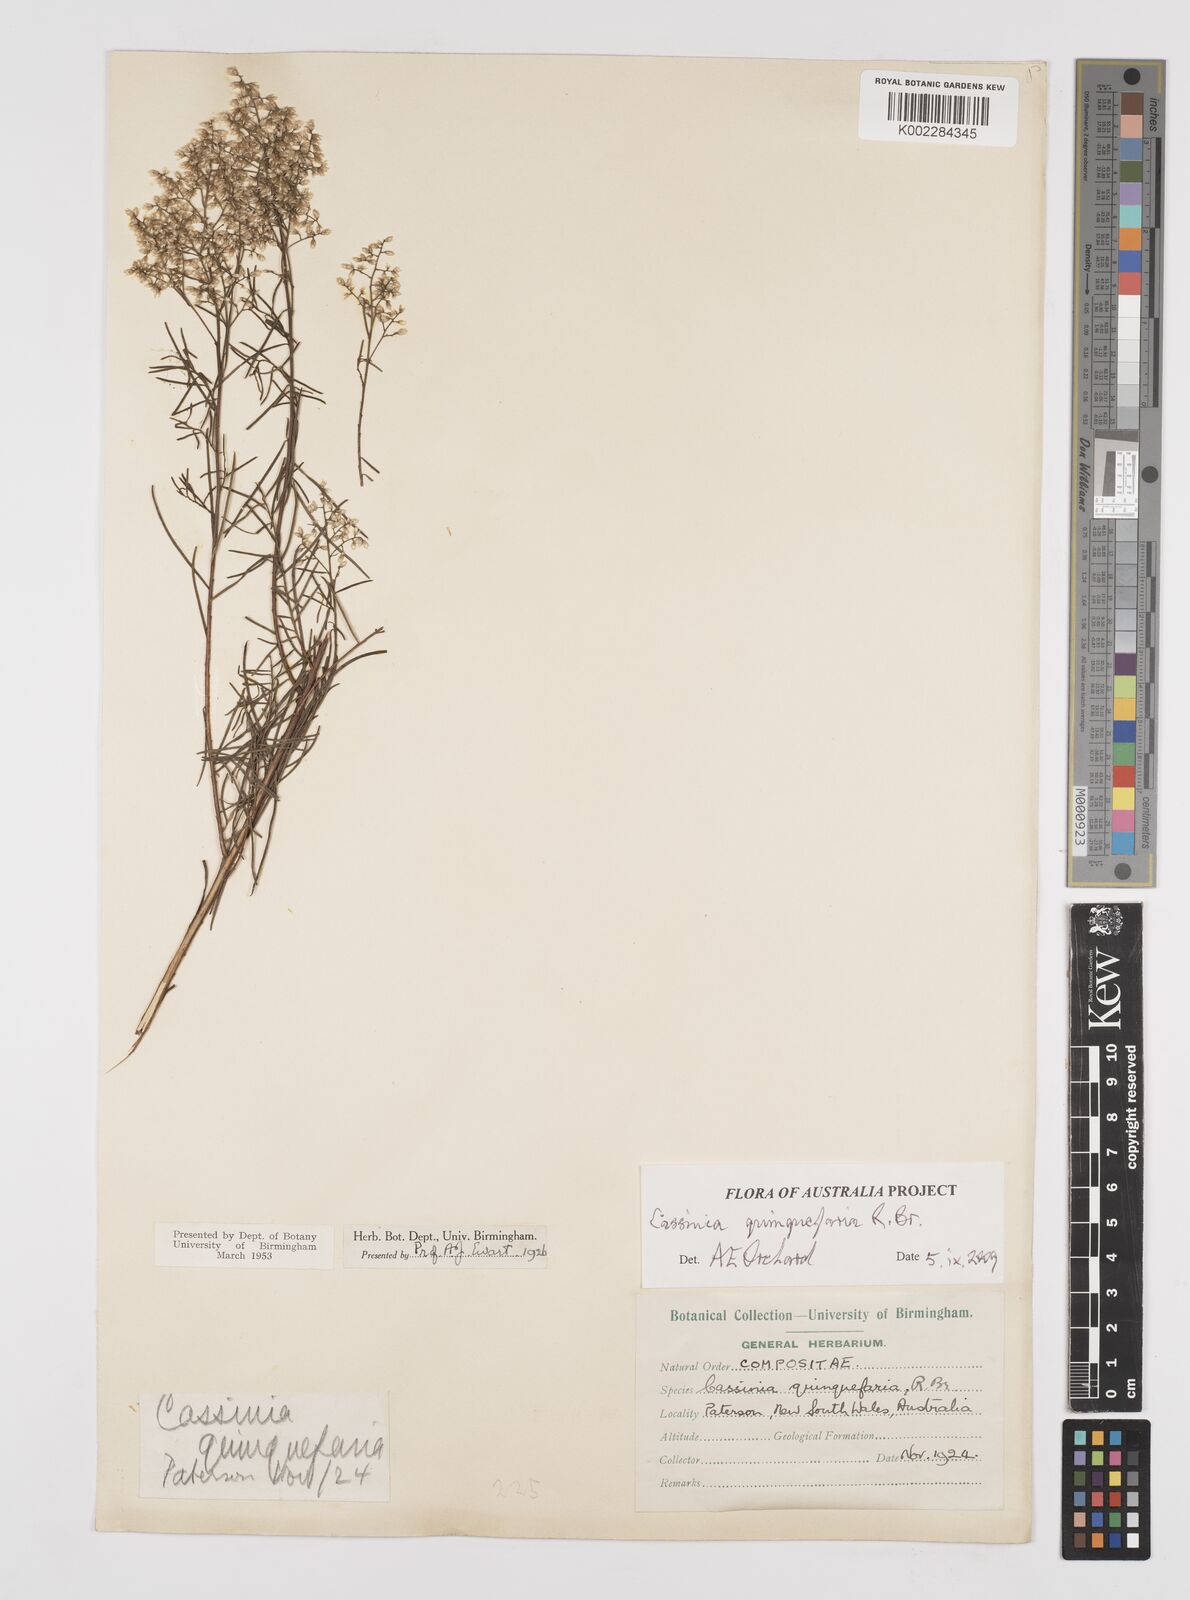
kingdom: Plantae
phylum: Tracheophyta
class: Magnoliopsida
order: Asterales
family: Asteraceae
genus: Cassinia
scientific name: Cassinia quinquefaria
